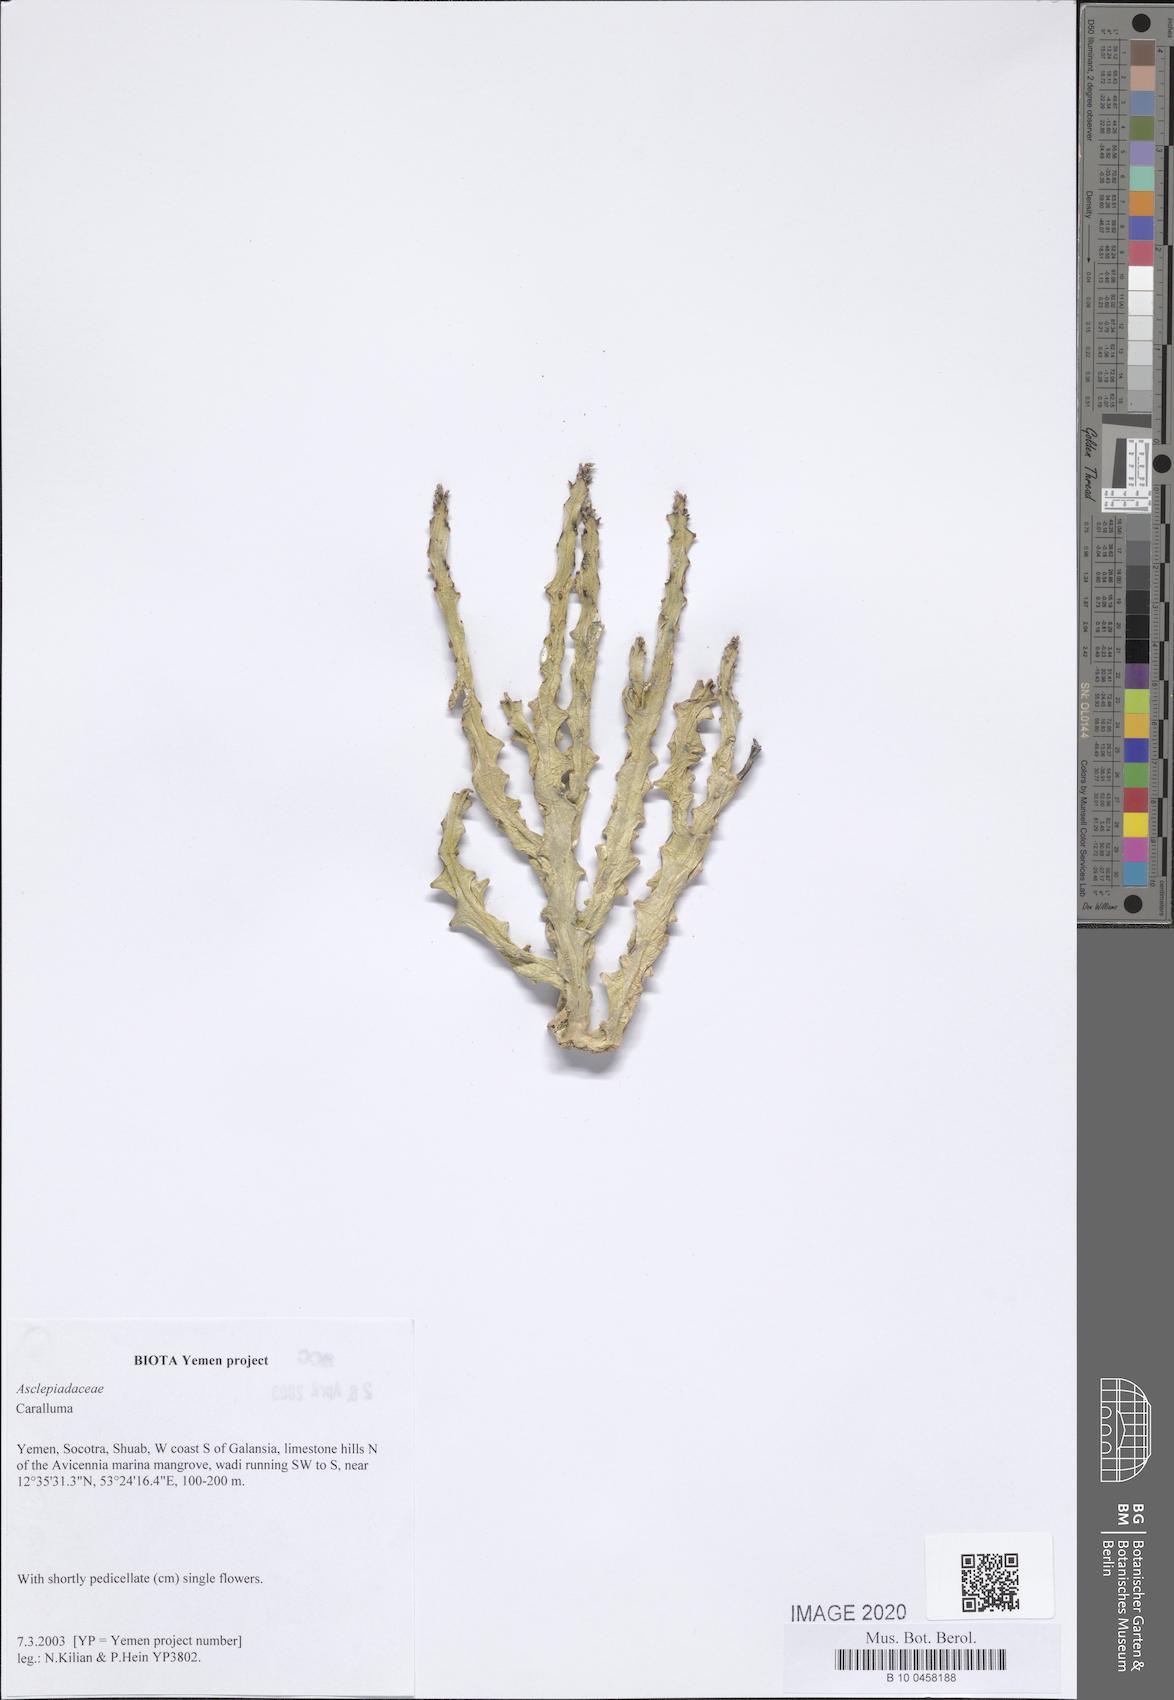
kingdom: Plantae
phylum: Tracheophyta
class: Magnoliopsida
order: Gentianales
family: Apocynaceae
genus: Ceropegia
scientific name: Ceropegia socotrana
